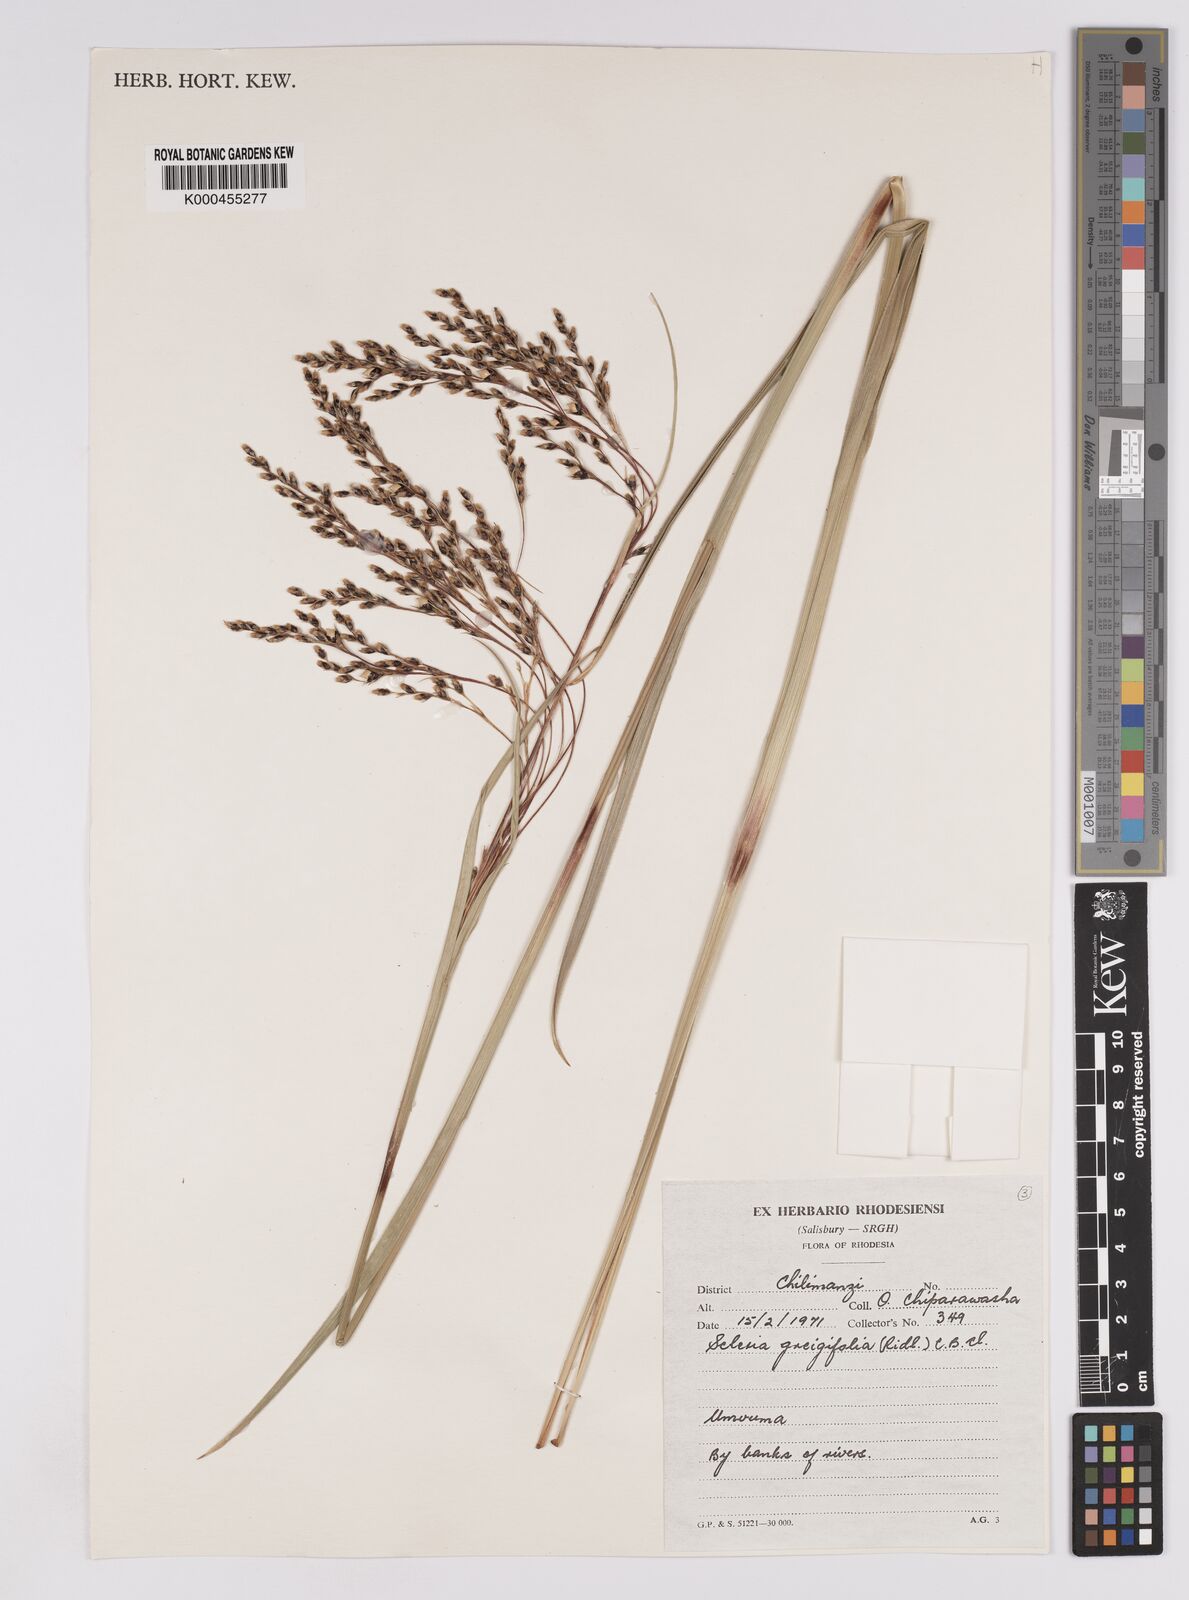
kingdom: Plantae
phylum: Tracheophyta
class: Liliopsida
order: Poales
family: Cyperaceae
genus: Scleria
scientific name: Scleria greigiifolia
